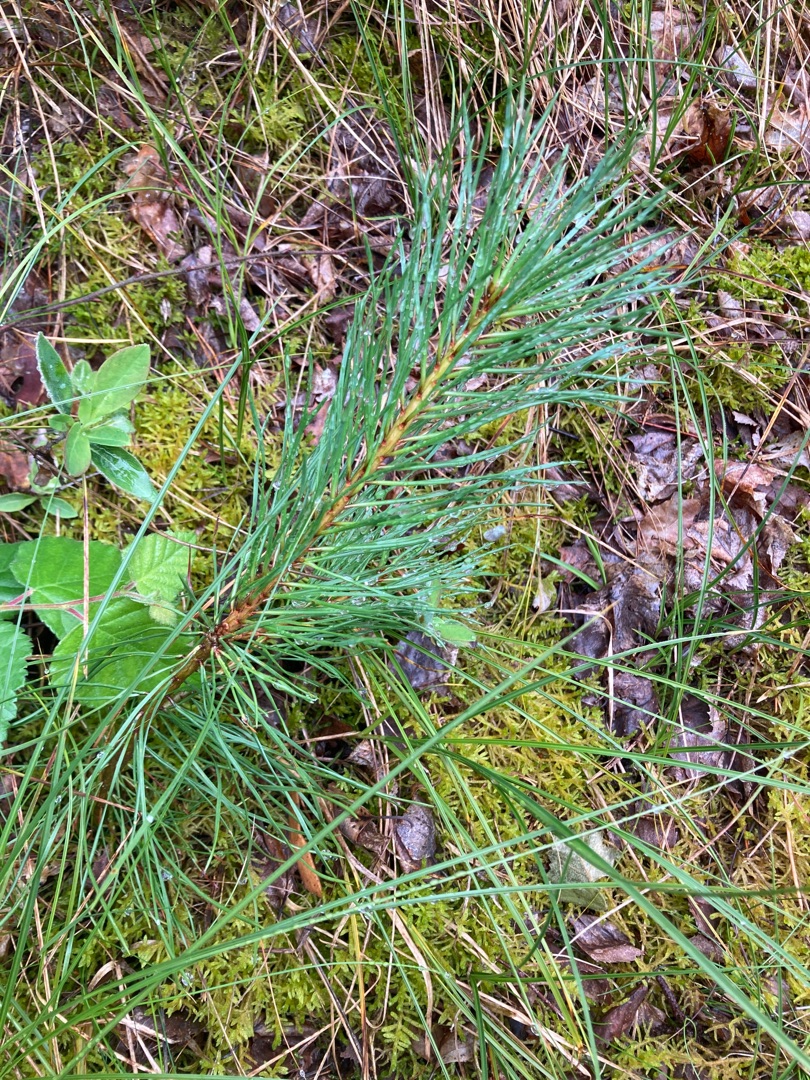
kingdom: Plantae
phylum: Tracheophyta
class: Pinopsida
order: Pinales
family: Pinaceae
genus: Pinus
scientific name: Pinus sylvestris
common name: Skov-fyr
